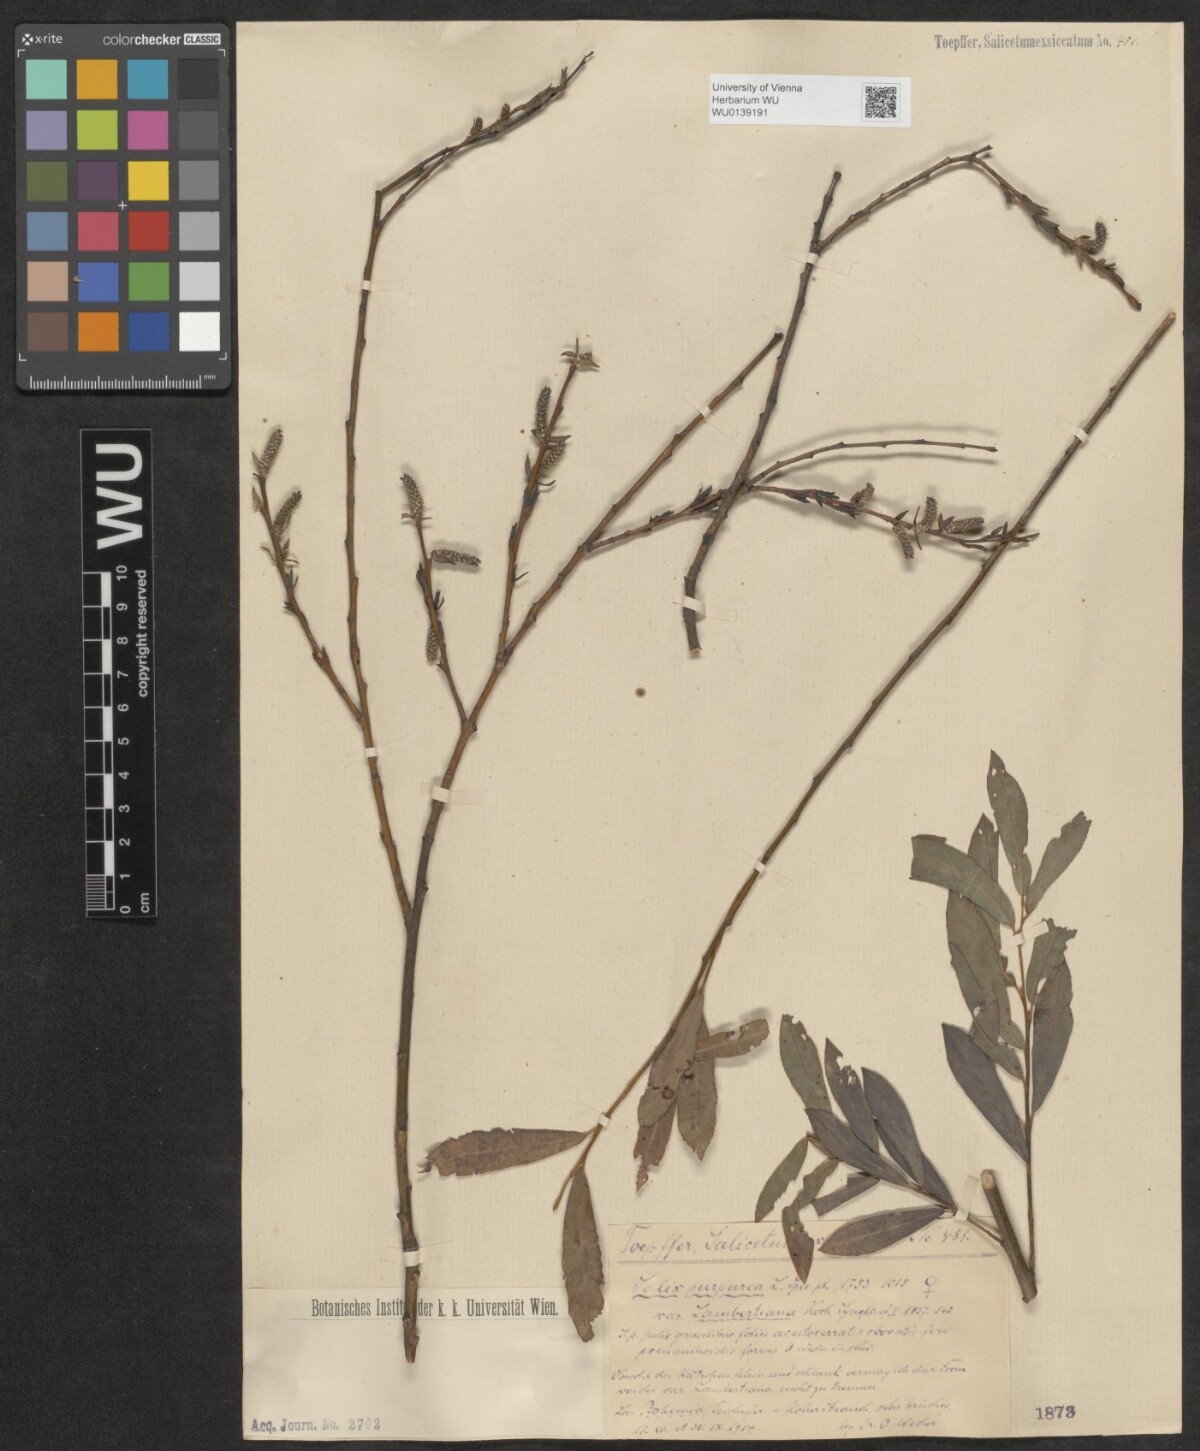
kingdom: Plantae
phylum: Tracheophyta
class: Magnoliopsida
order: Malpighiales
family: Salicaceae
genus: Salix
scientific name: Salix purpurea
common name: Purple willow
